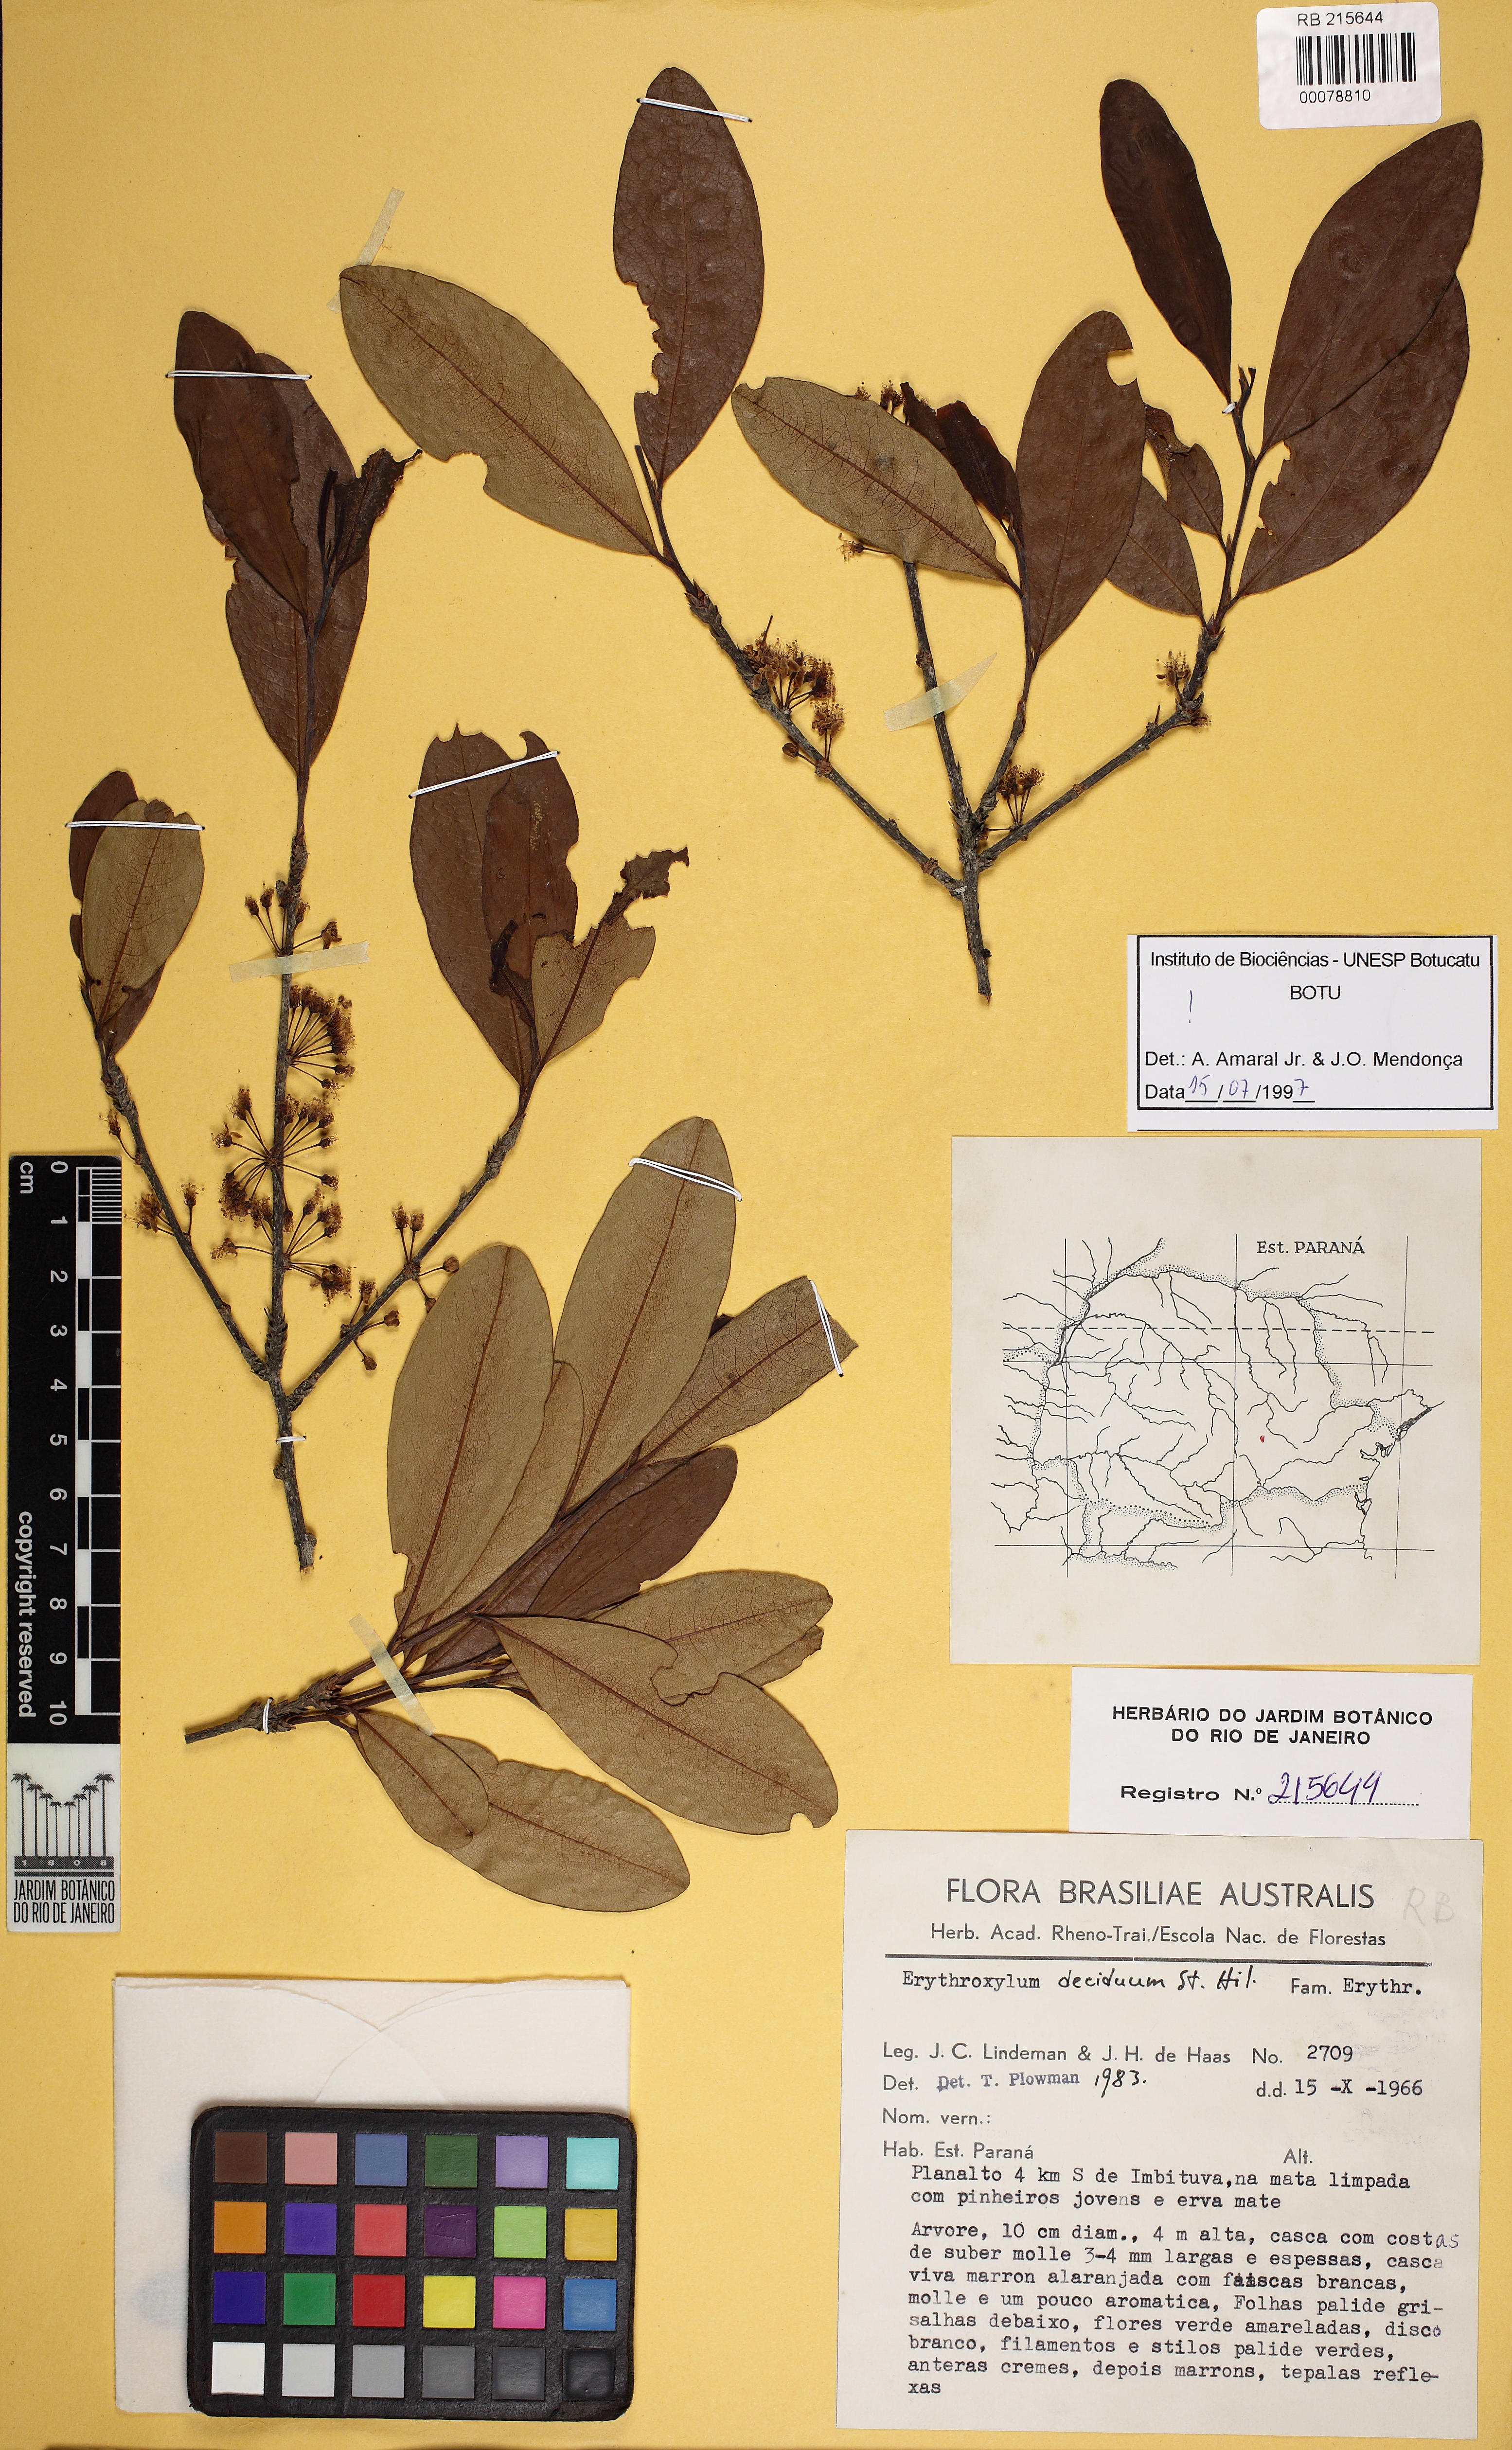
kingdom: Plantae
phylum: Tracheophyta
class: Magnoliopsida
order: Malpighiales
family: Erythroxylaceae
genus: Erythroxylum
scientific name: Erythroxylum deciduum
